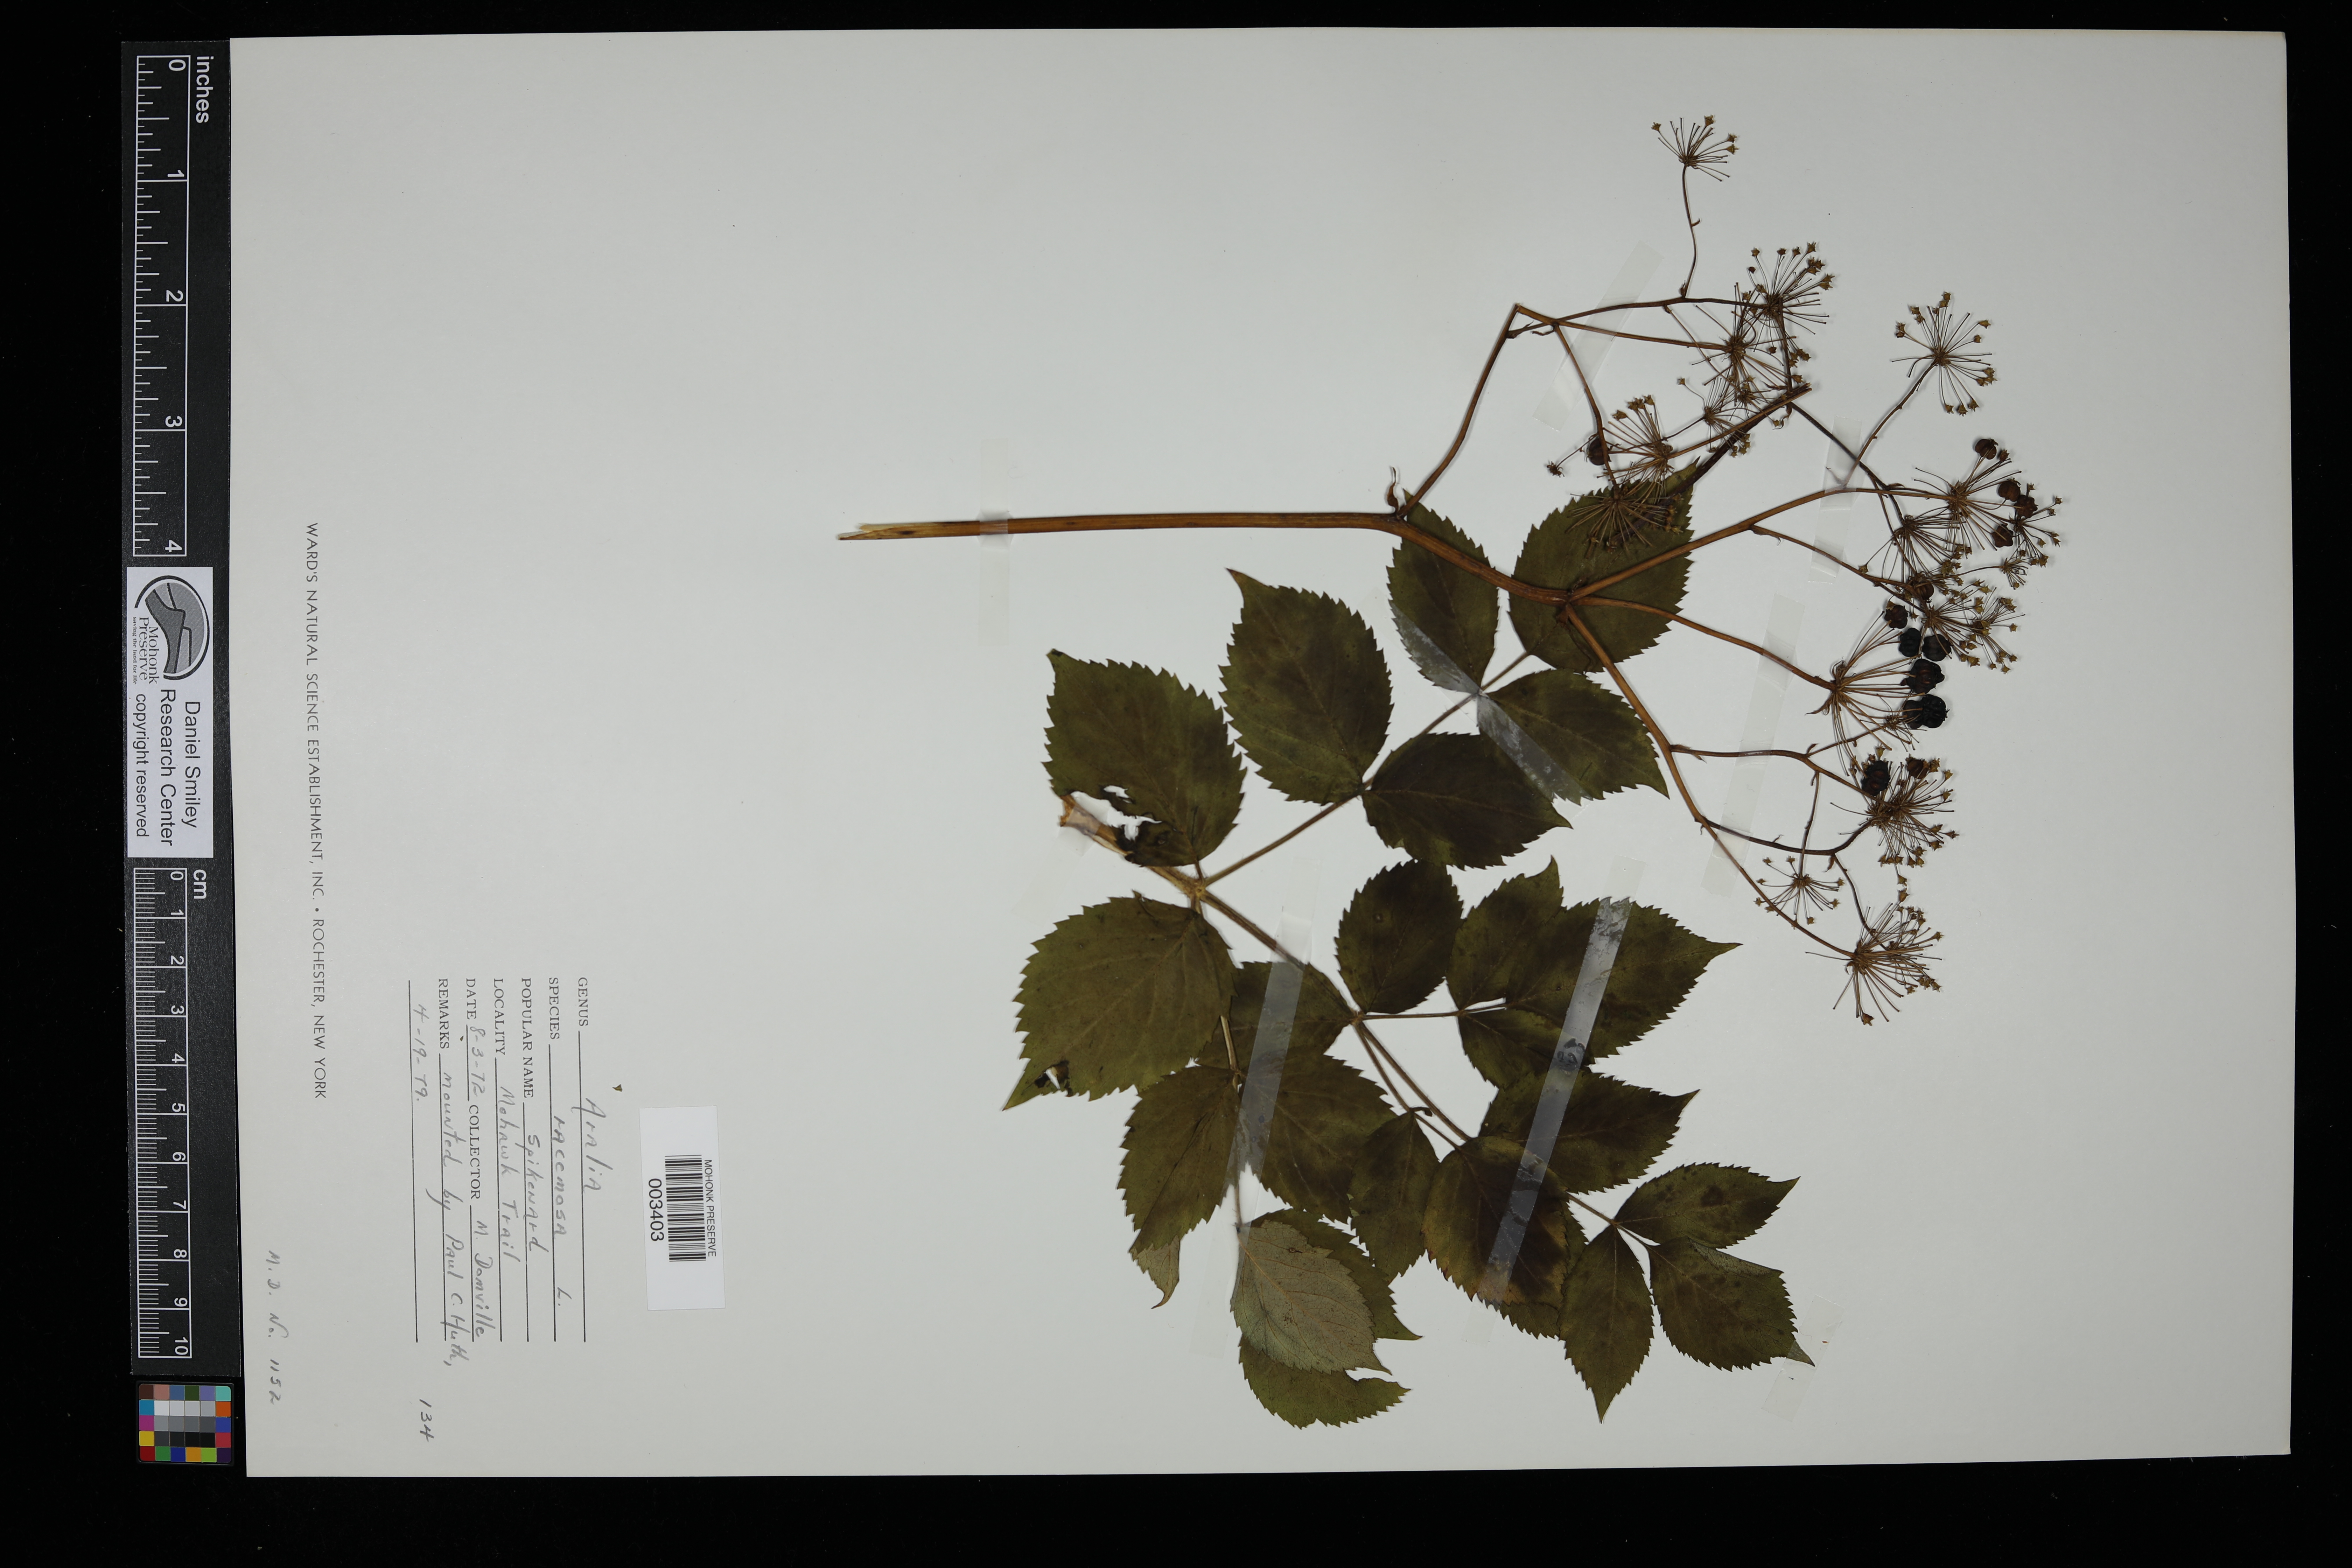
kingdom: Plantae
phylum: Tracheophyta
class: Magnoliopsida
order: Apiales
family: Araliaceae
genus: Aralia
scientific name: Aralia racemosa
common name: American-spikenard
